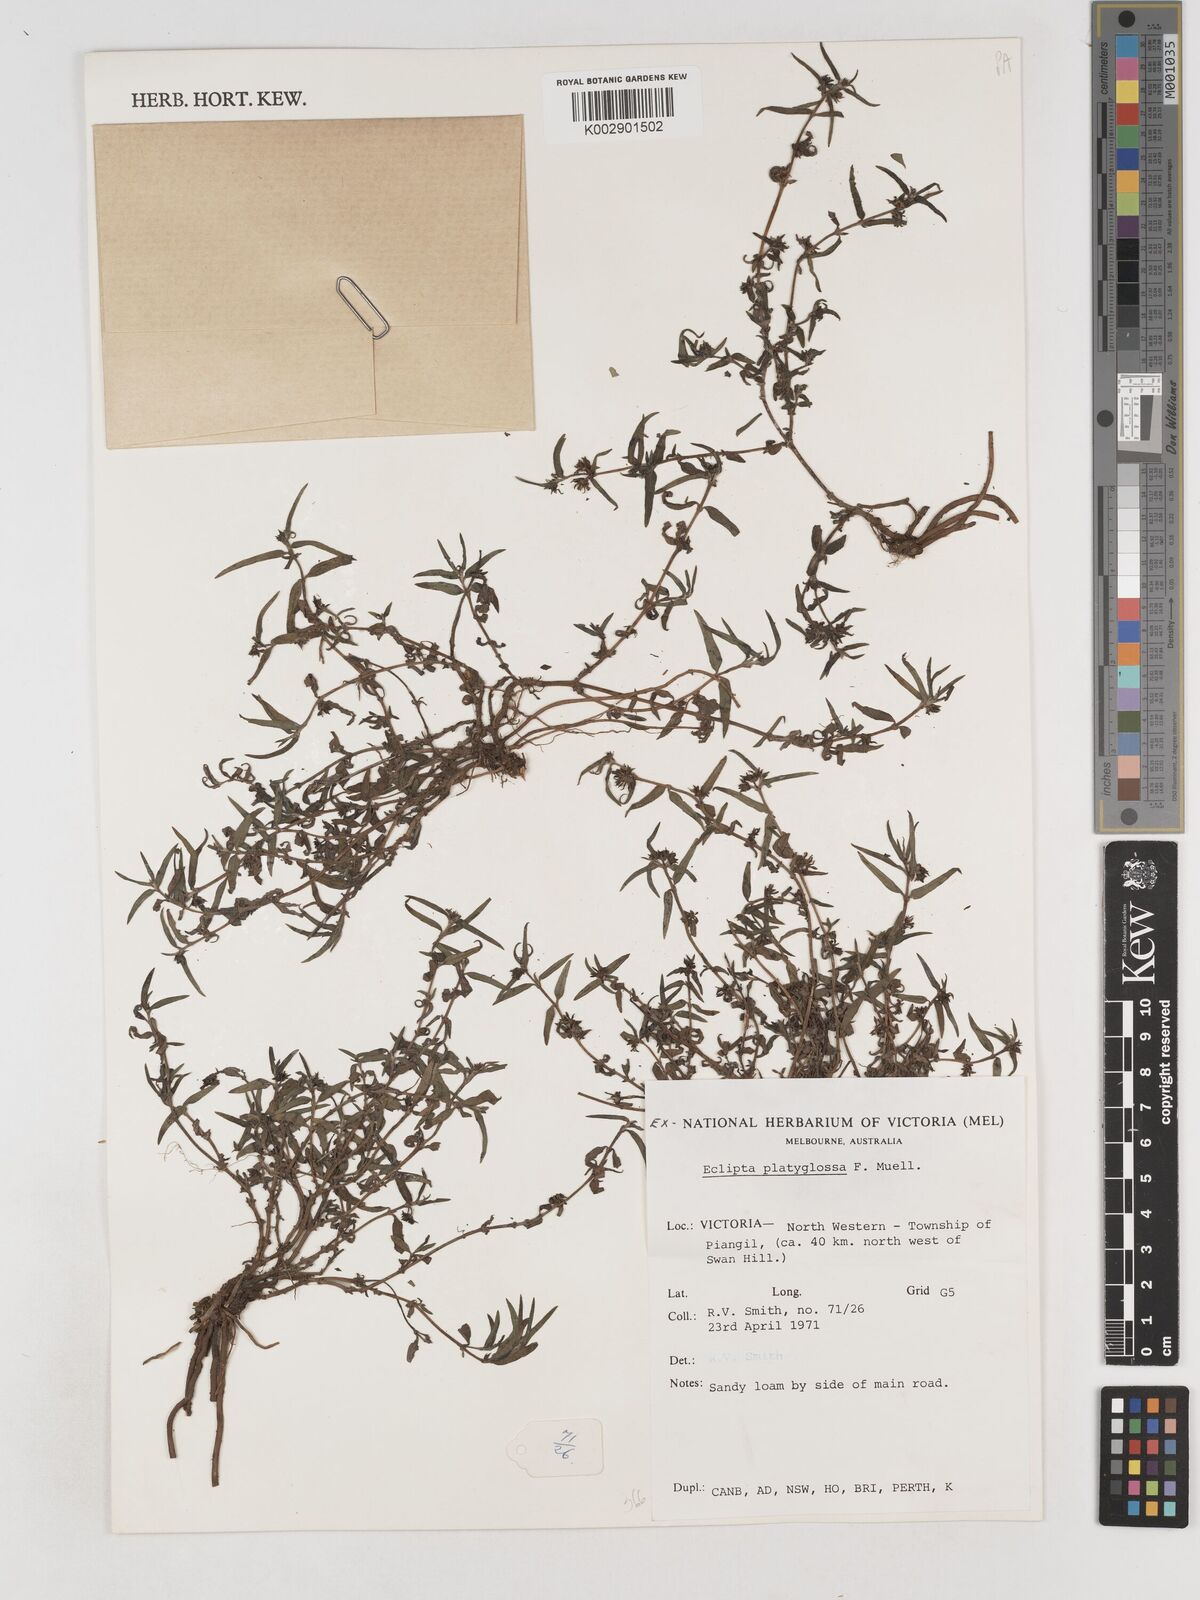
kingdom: Plantae
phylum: Tracheophyta
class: Magnoliopsida
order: Asterales
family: Asteraceae
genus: Eclipta
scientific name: Eclipta platyglossa
